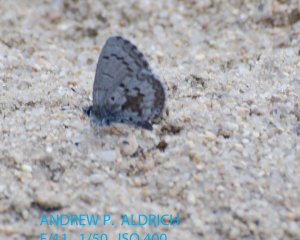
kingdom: Animalia
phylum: Arthropoda
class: Insecta
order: Lepidoptera
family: Lycaenidae
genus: Celastrina
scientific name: Celastrina lucia
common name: Northern Spring Azure
